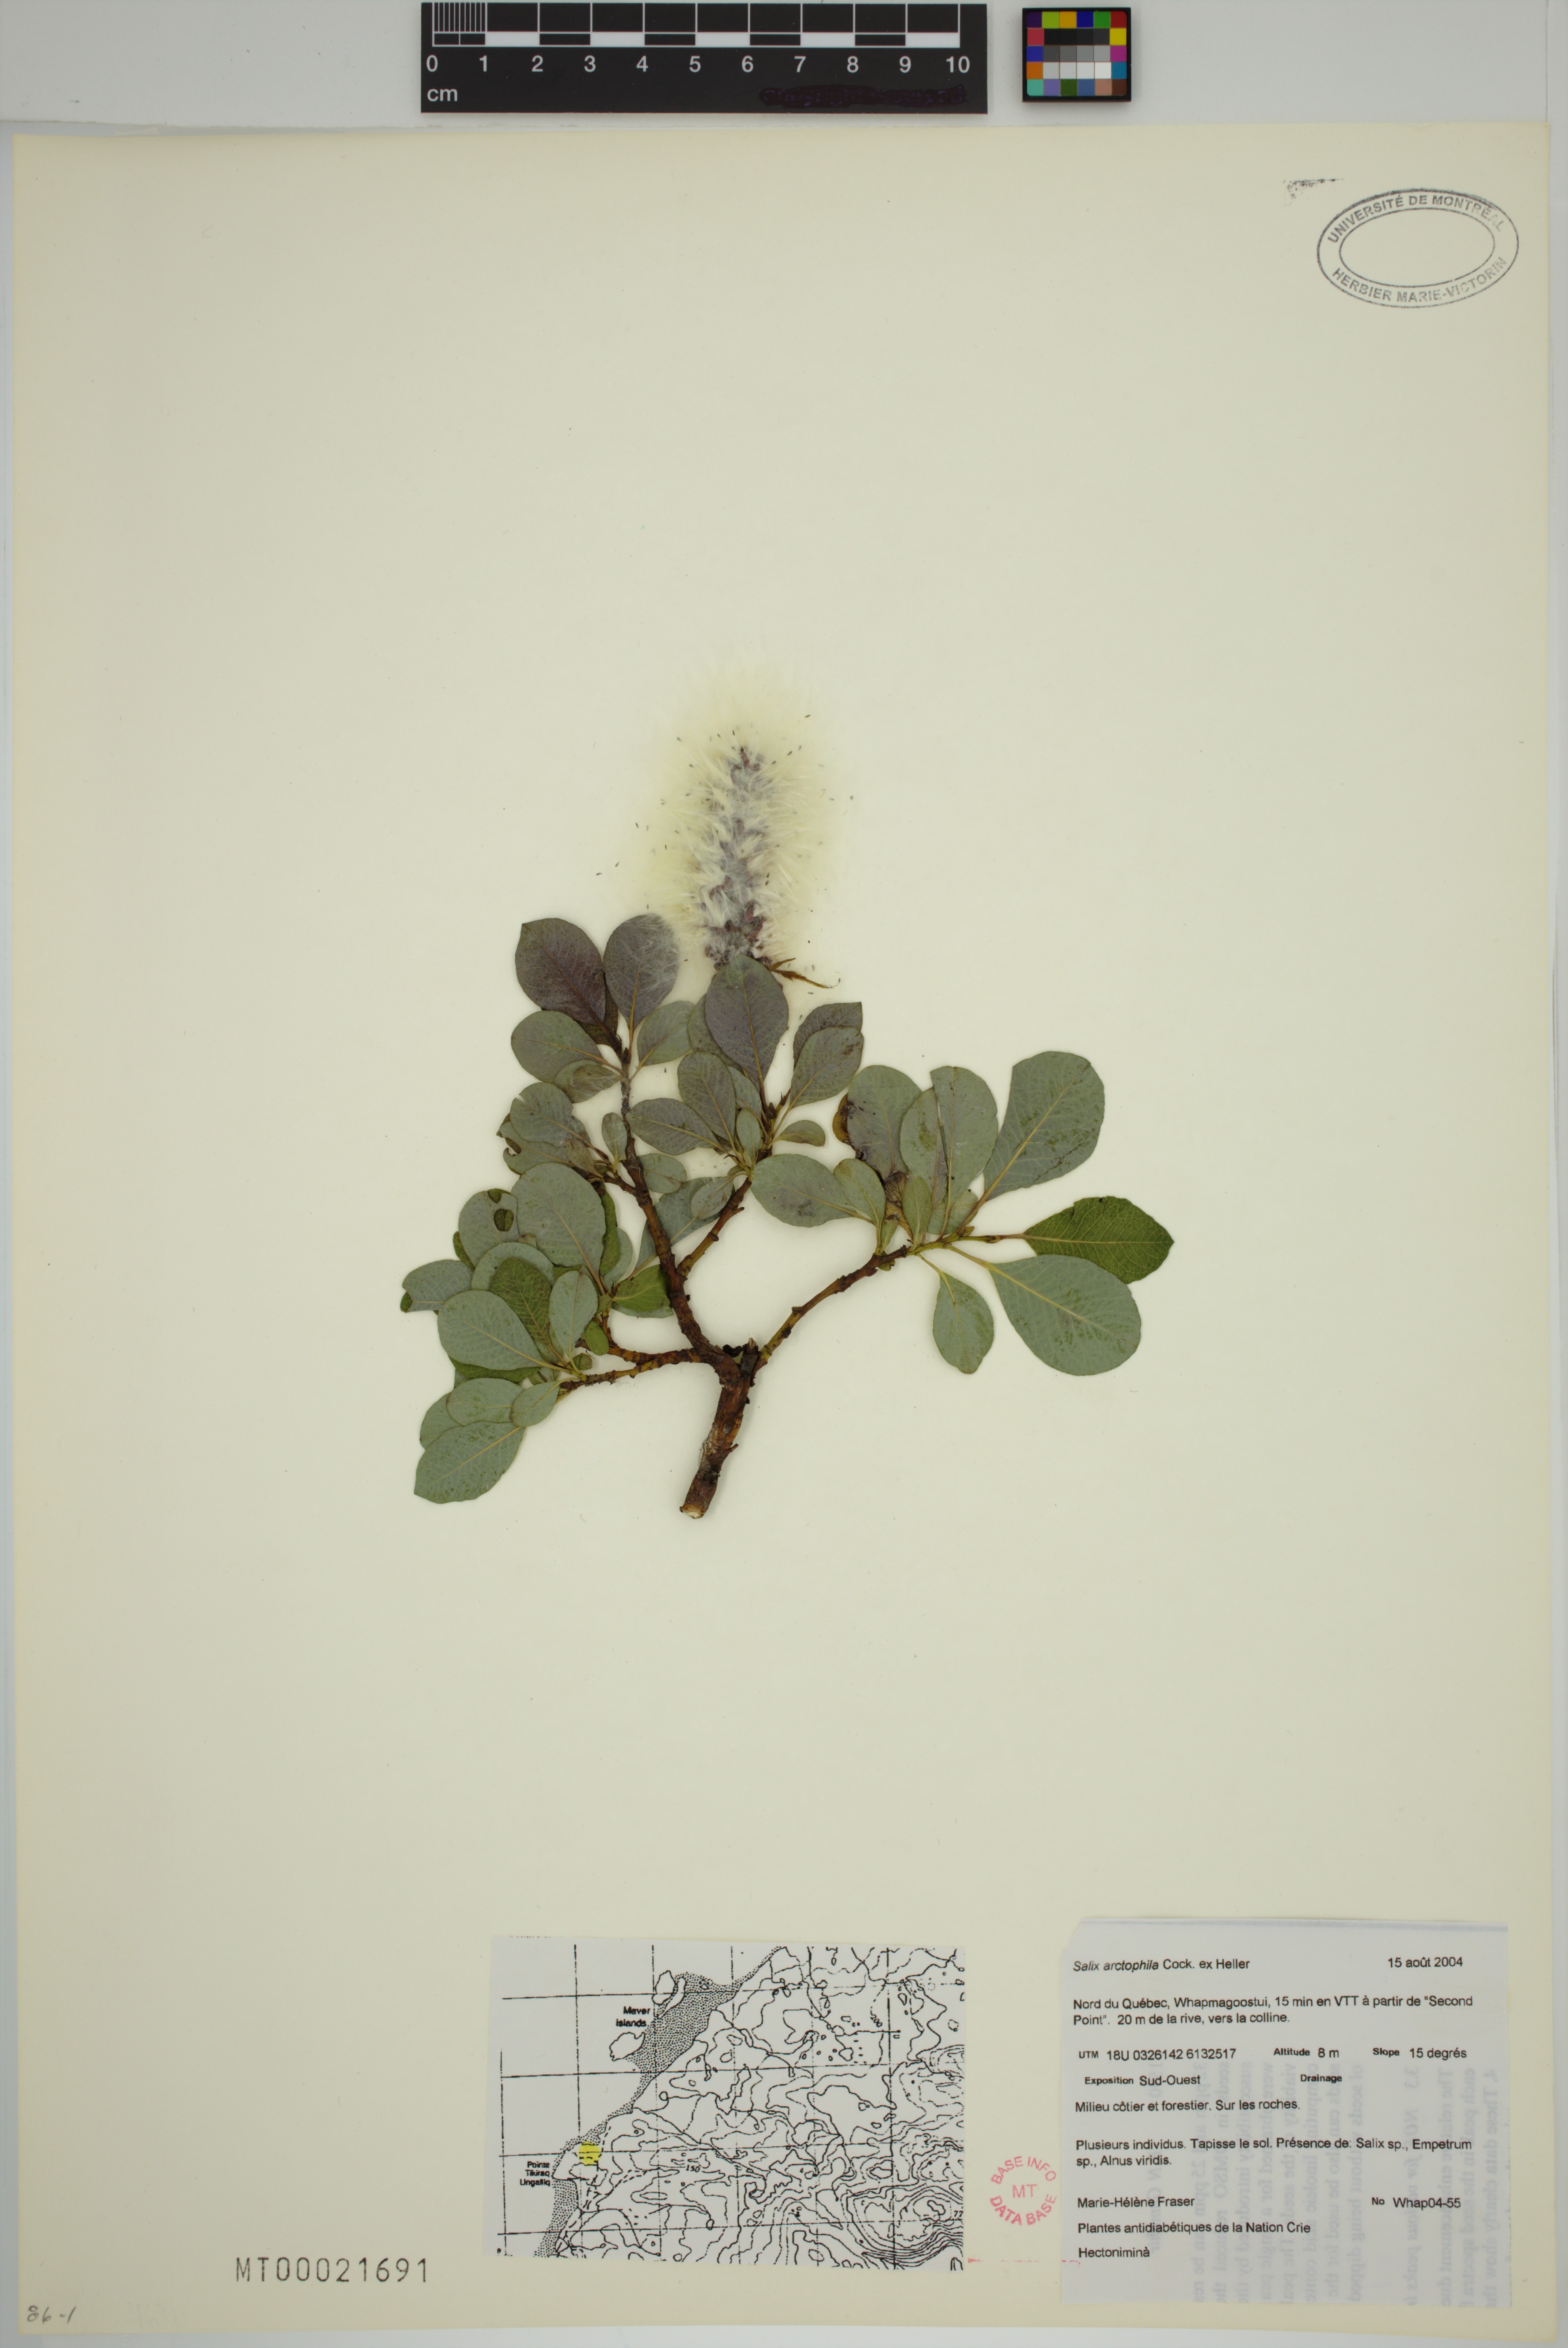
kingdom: Plantae
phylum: Tracheophyta
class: Magnoliopsida
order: Malpighiales
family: Salicaceae
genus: Salix
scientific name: Salix arctophila
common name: Greenland willow
